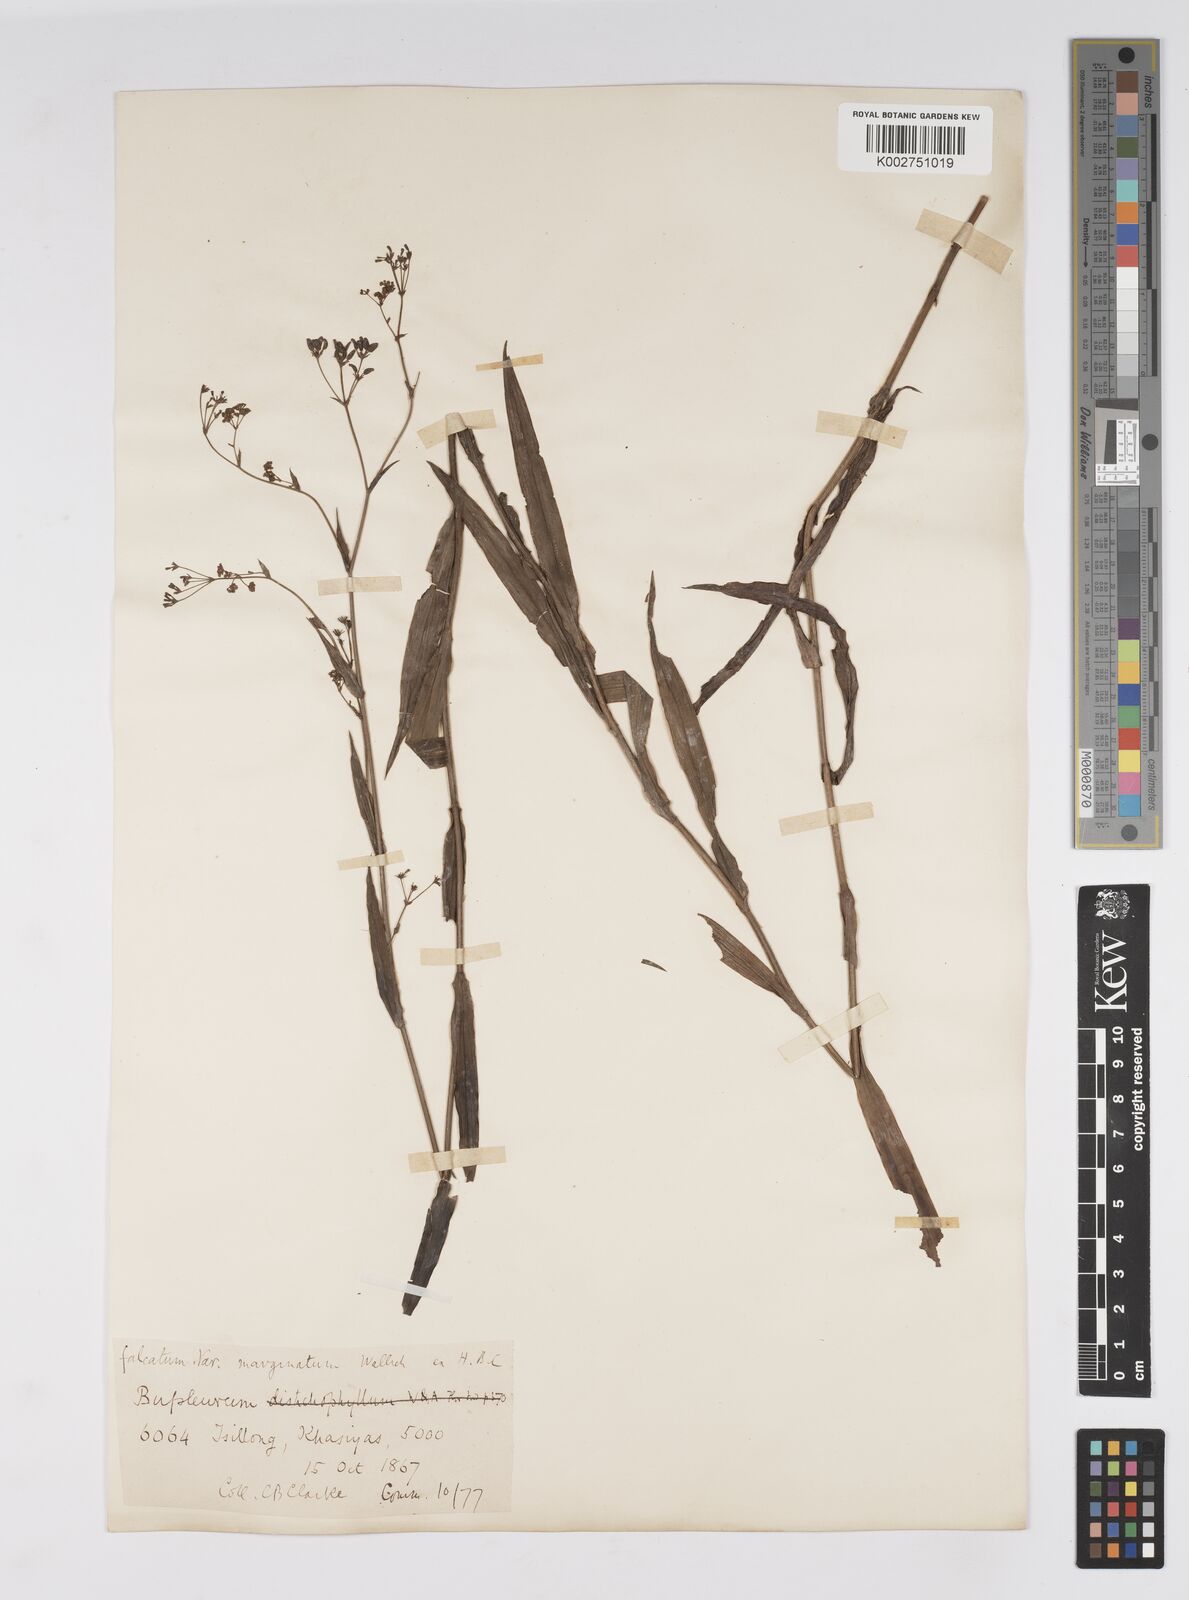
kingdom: Plantae
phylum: Tracheophyta
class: Magnoliopsida
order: Apiales
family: Apiaceae
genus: Bupleurum
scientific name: Bupleurum falcatum
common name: Sickle-leaved hare's-ear
